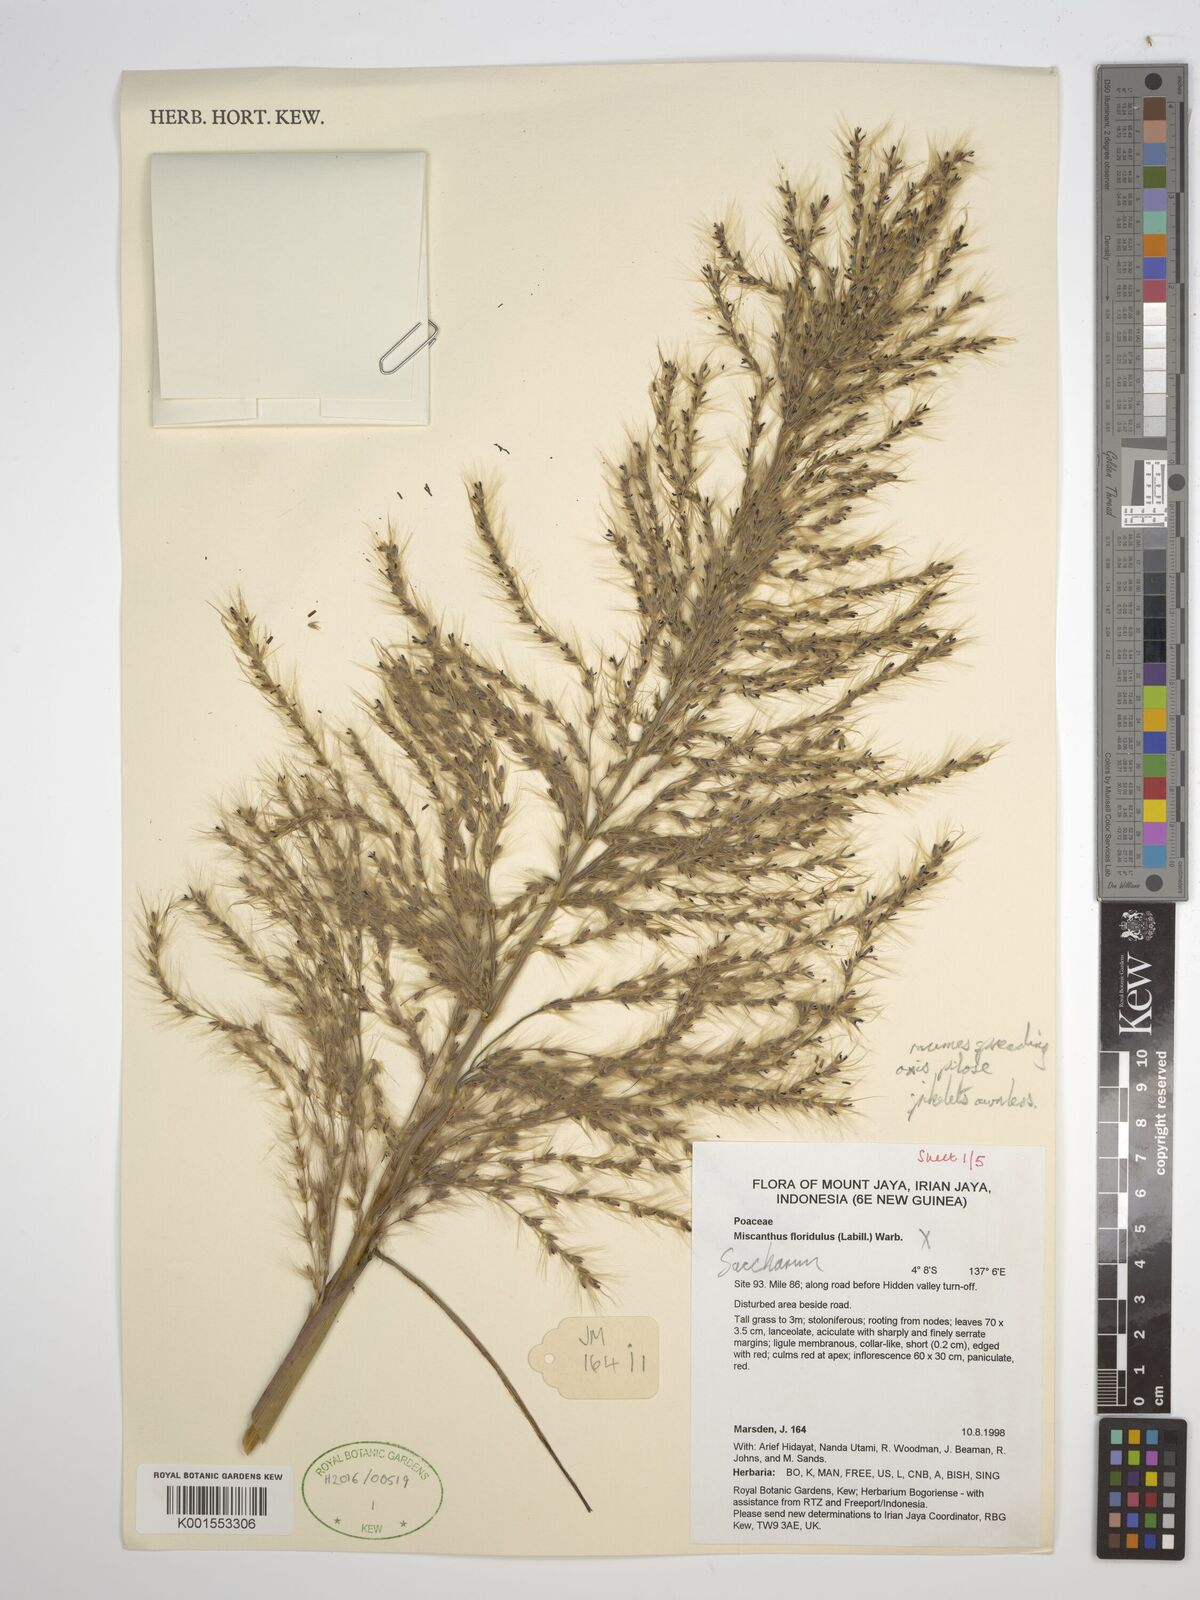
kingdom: Plantae
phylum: Tracheophyta
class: Liliopsida
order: Poales
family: Poaceae
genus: Saccharum
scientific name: Saccharum
